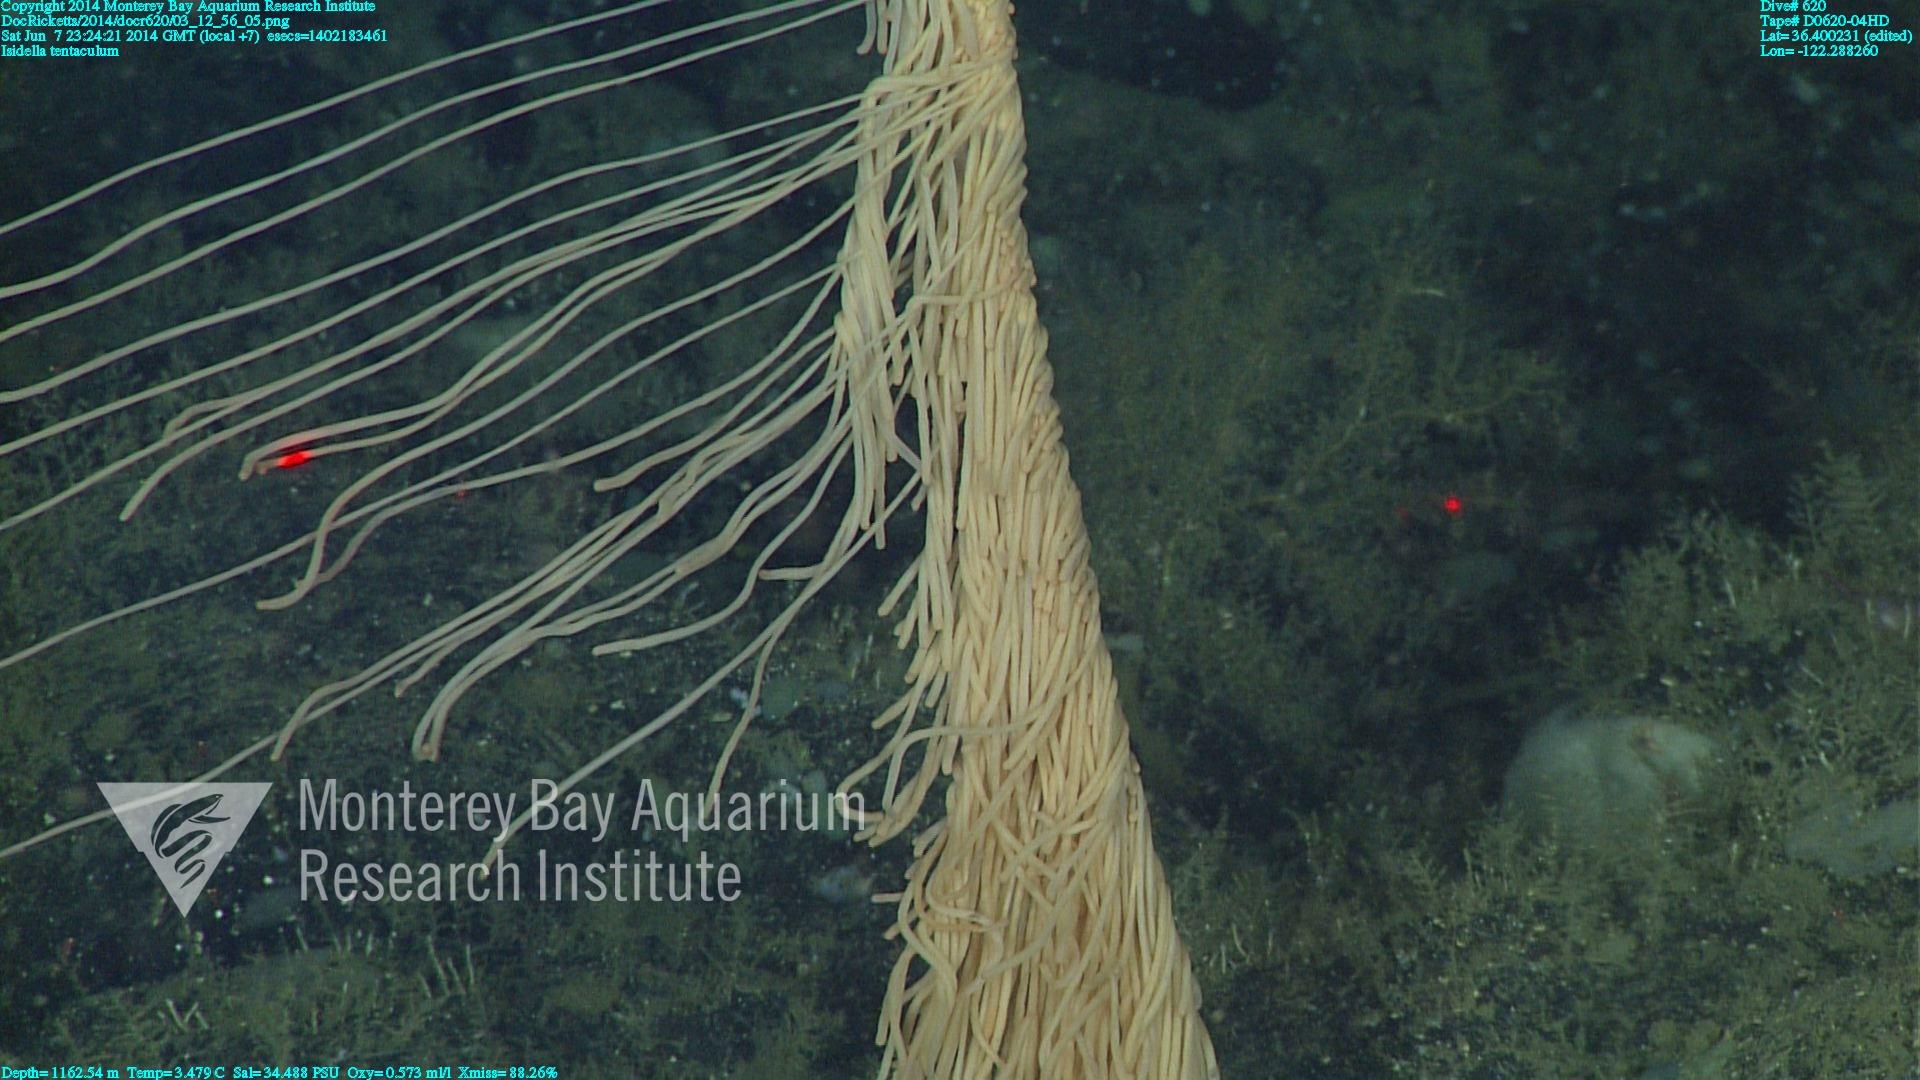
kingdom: Animalia
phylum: Cnidaria
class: Anthozoa
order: Scleralcyonacea
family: Keratoisididae
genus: Isidella
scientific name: Isidella tentaculum
